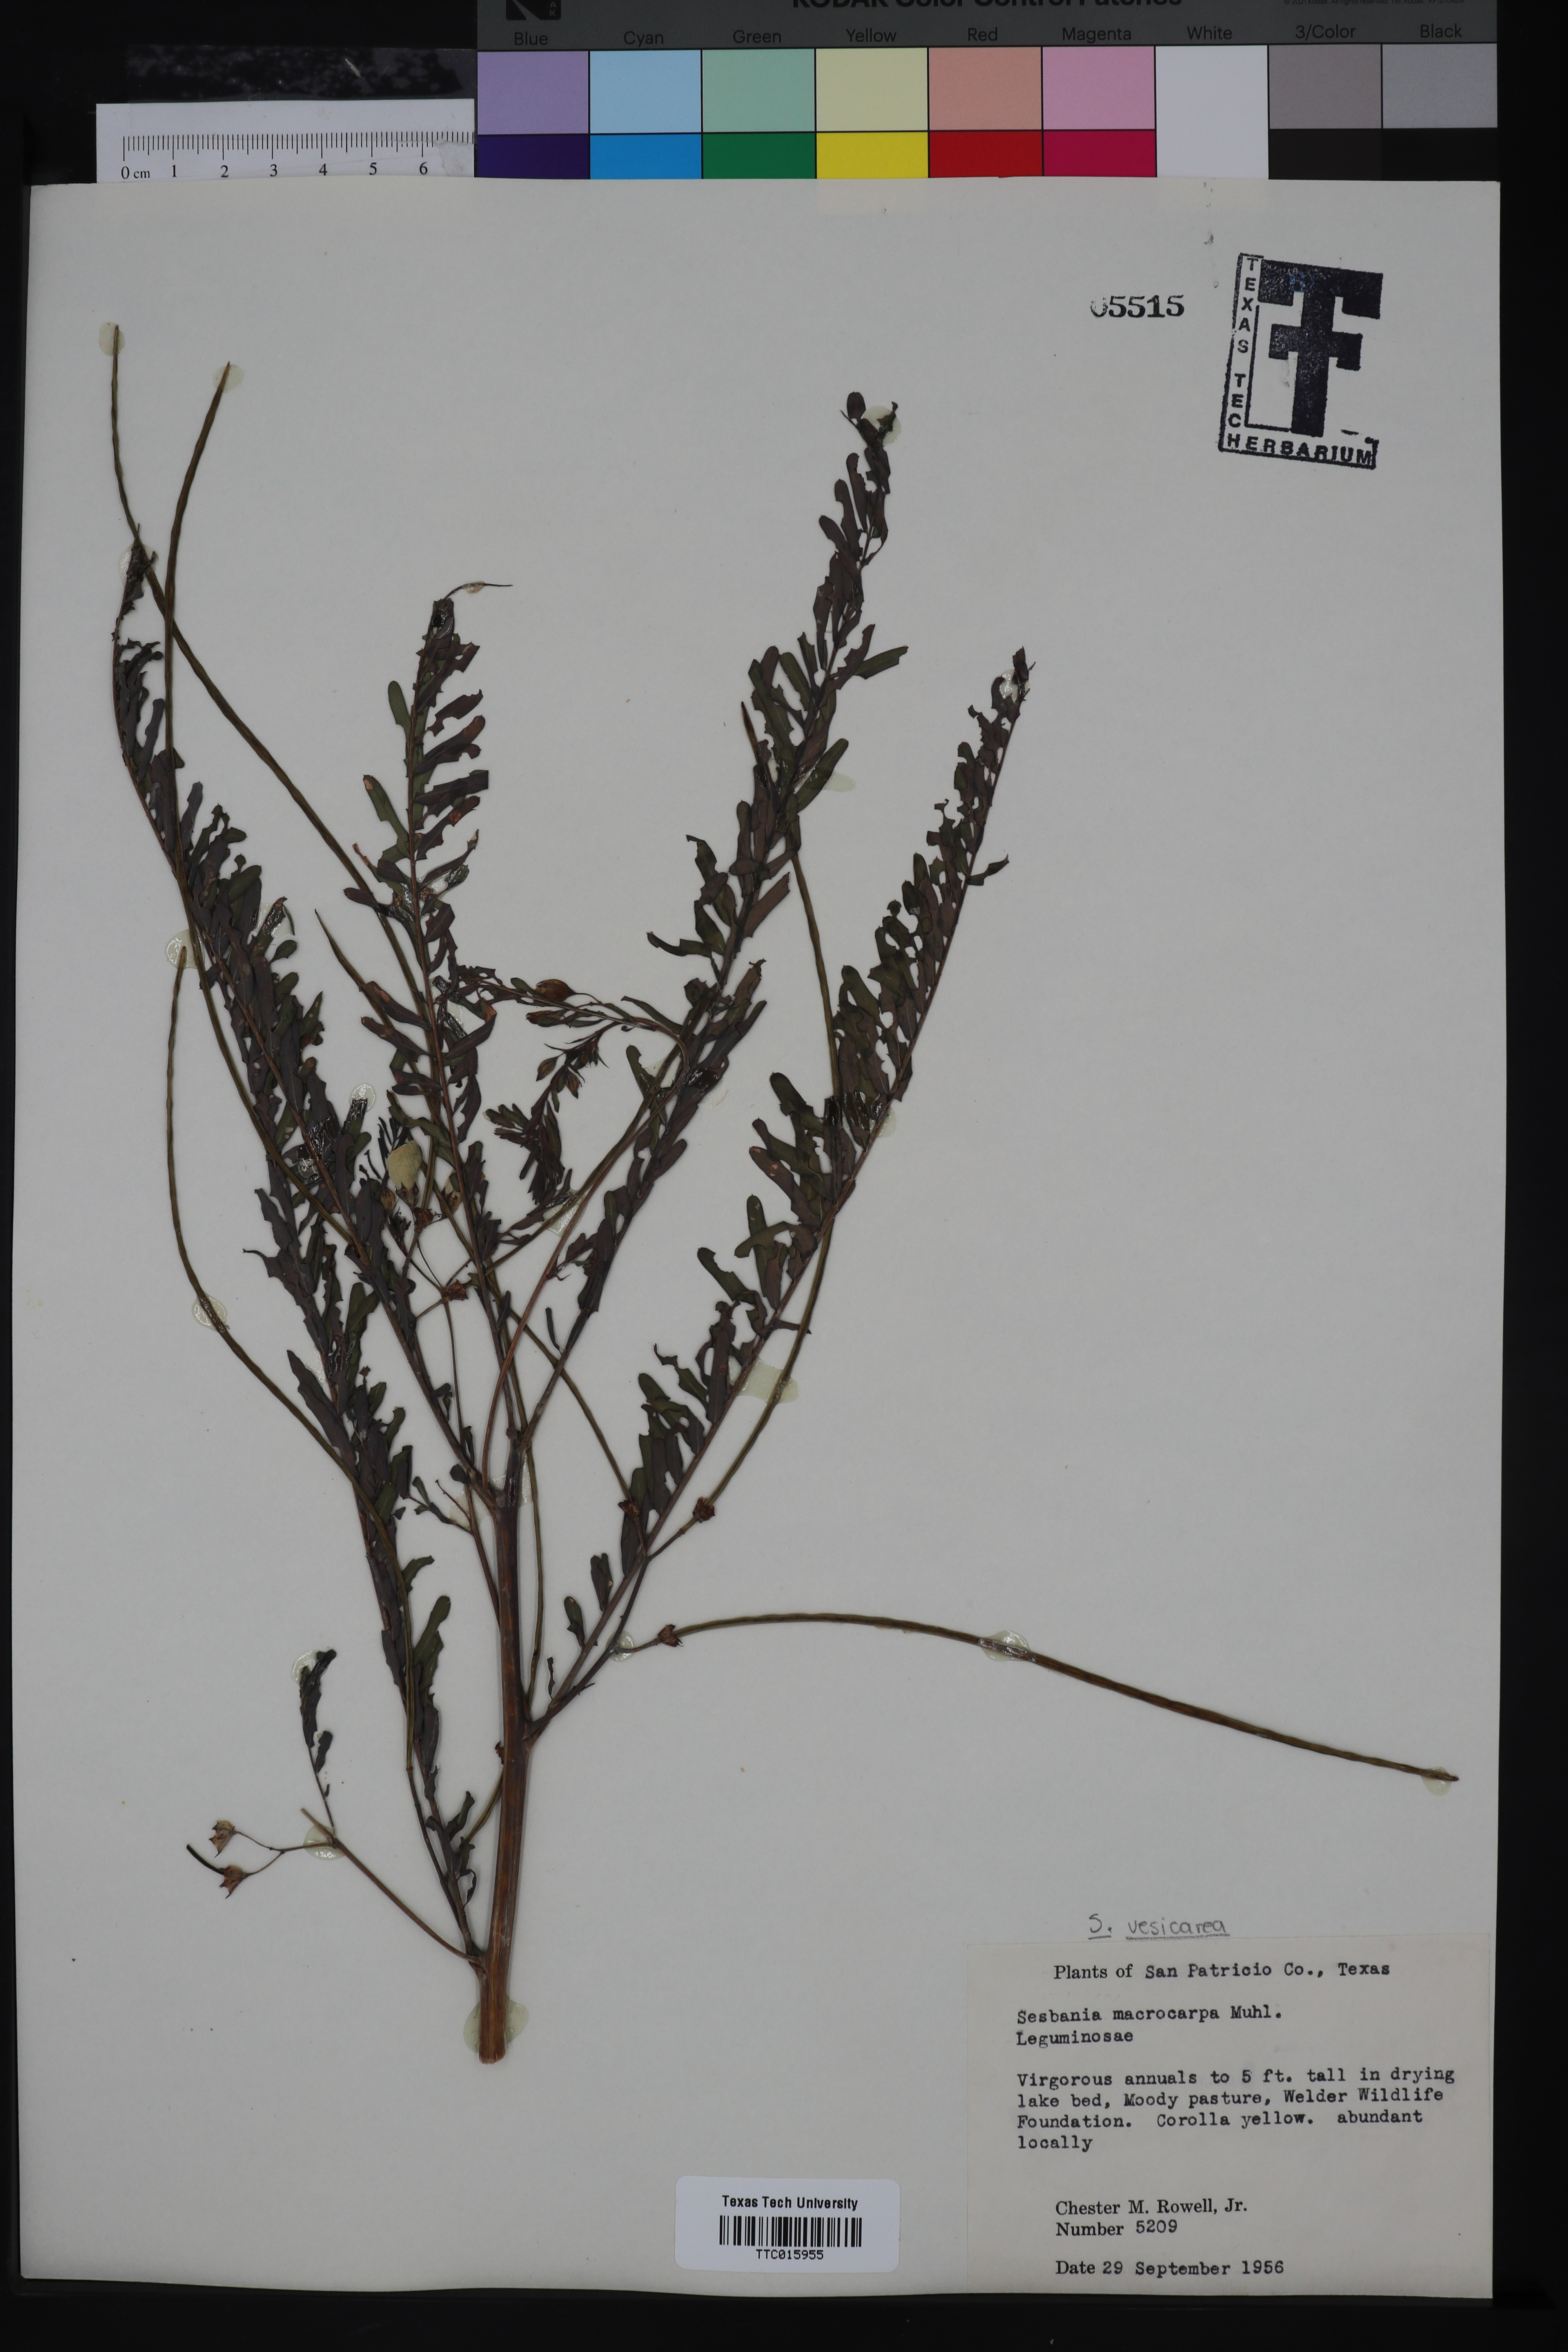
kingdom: Plantae
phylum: Tracheophyta
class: Magnoliopsida
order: Fabales
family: Fabaceae
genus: Sesbania
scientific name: Sesbania herbacea
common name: Bigpod sesbania
